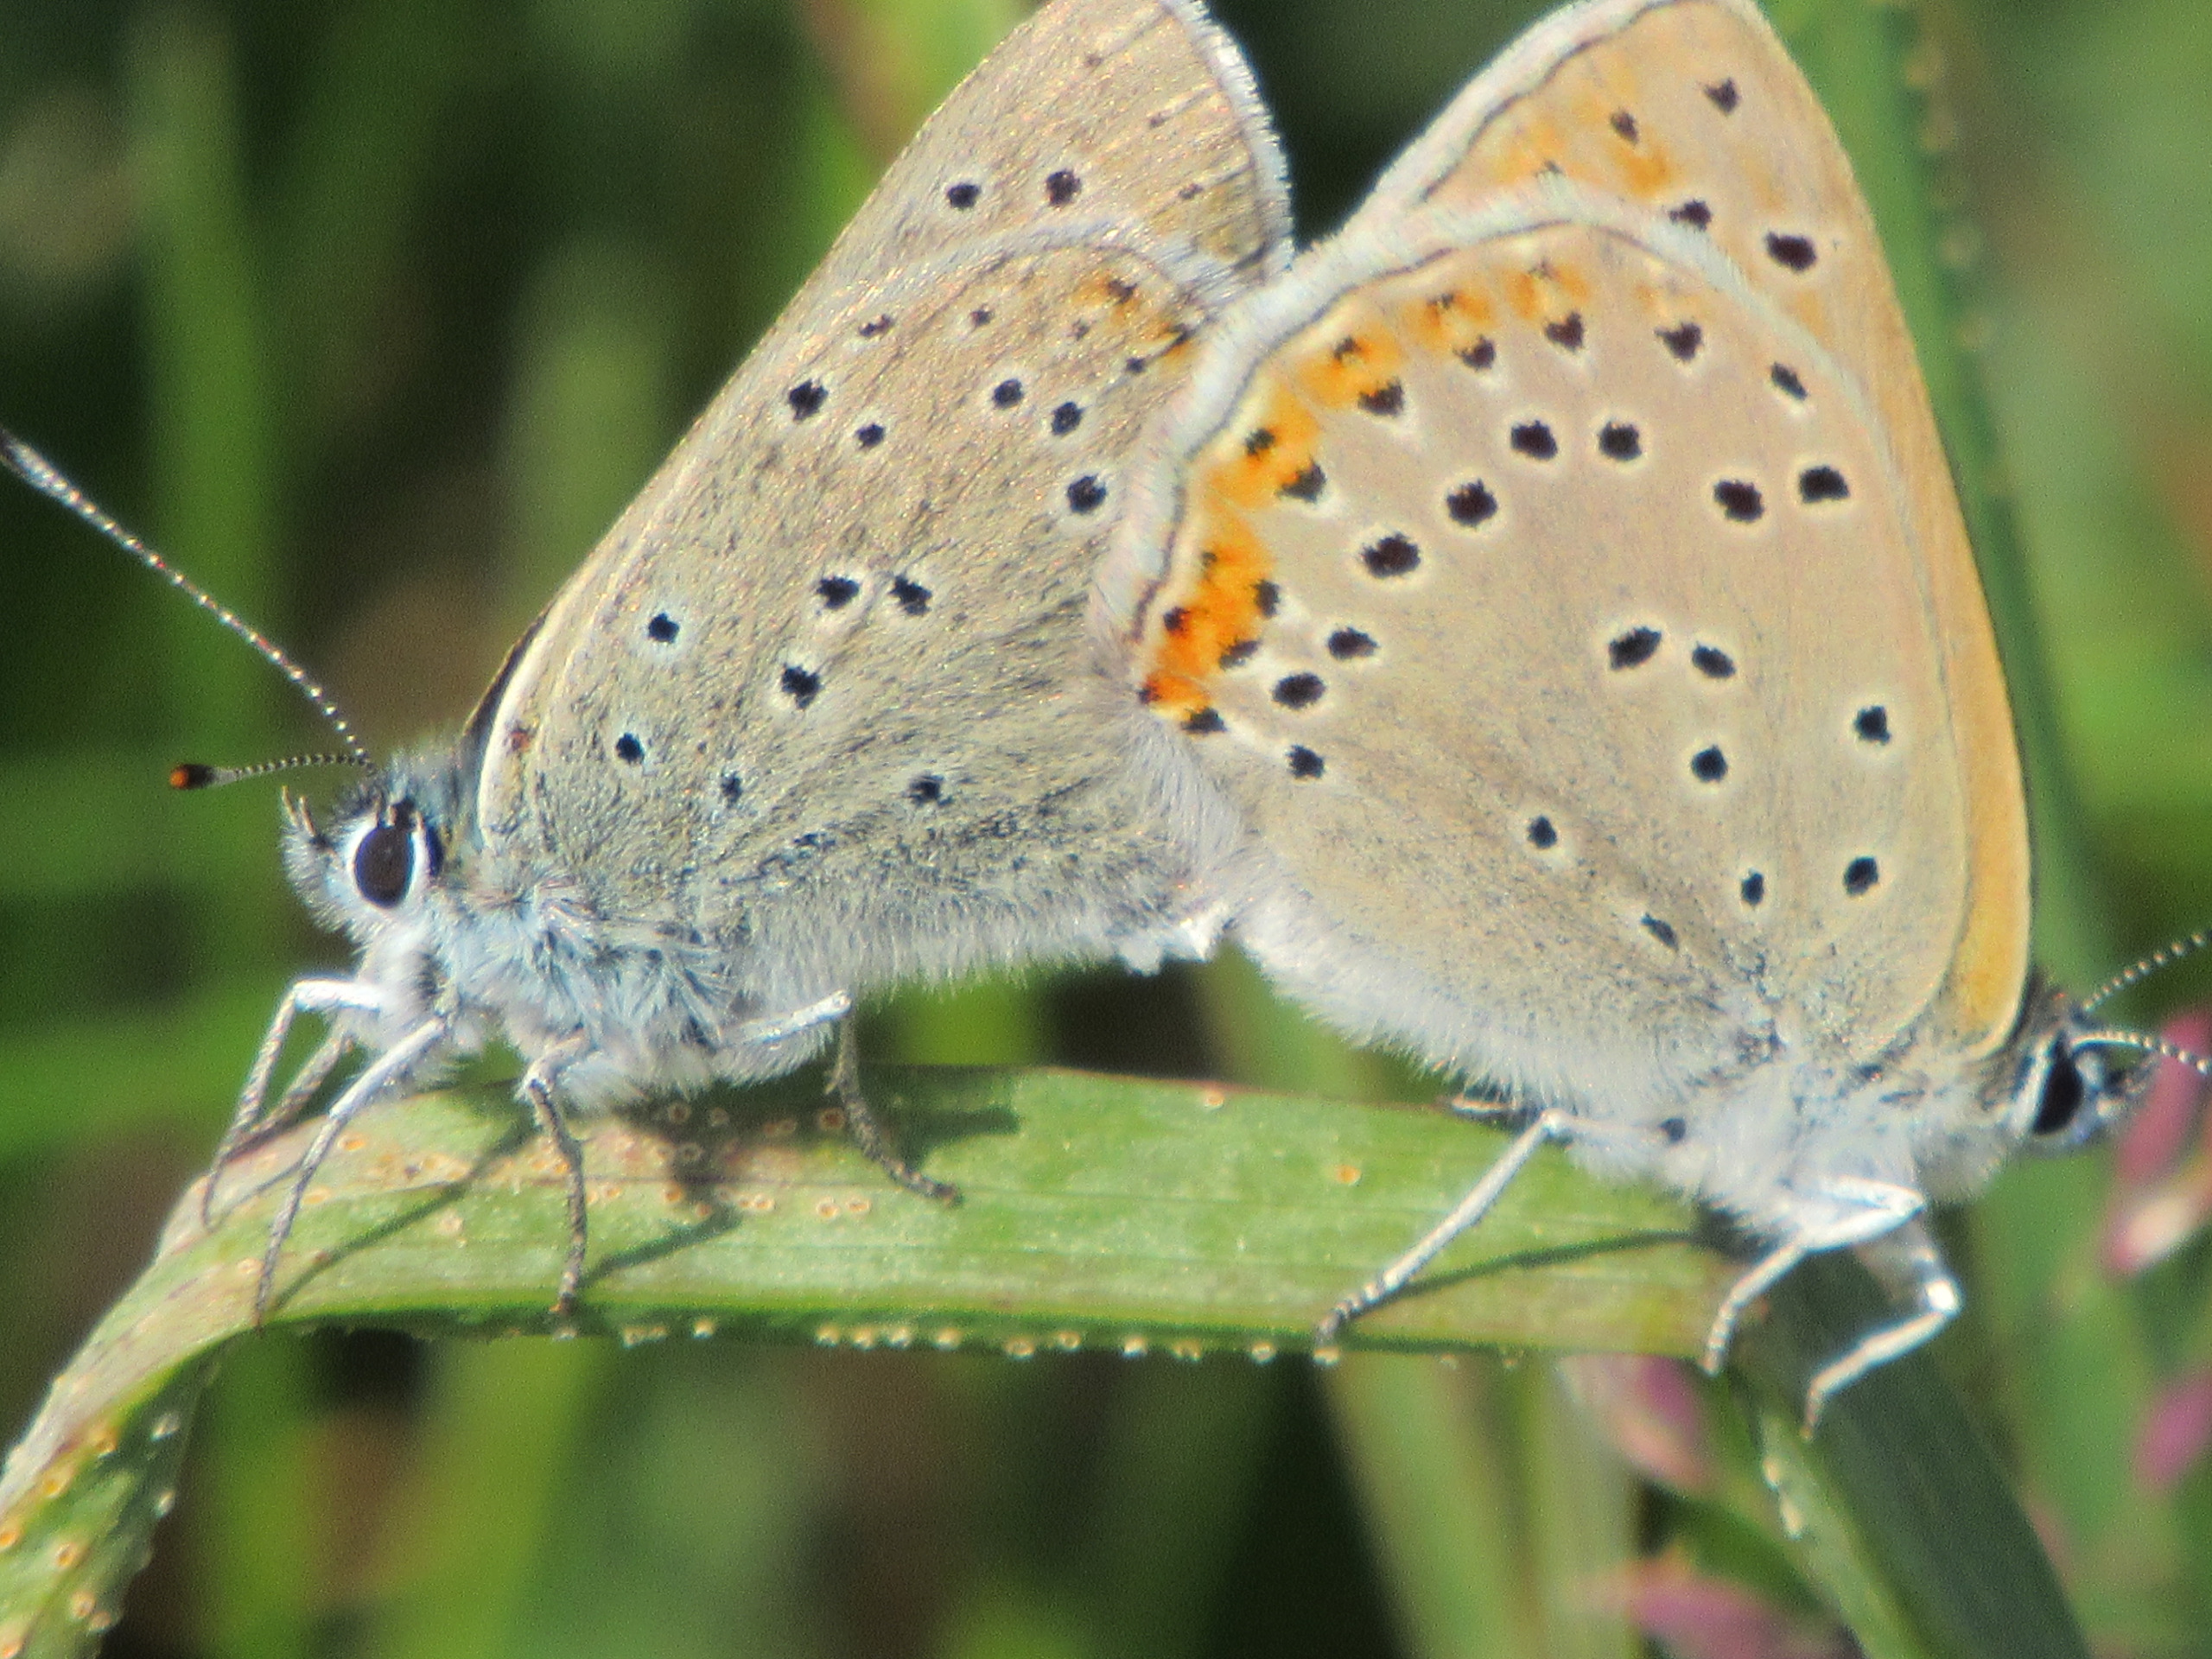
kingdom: Animalia
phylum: Arthropoda
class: Insecta
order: Lepidoptera
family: Lycaenidae
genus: Palaeochrysophanus
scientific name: Palaeochrysophanus hippothoe
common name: Violetrandet ildfugl
